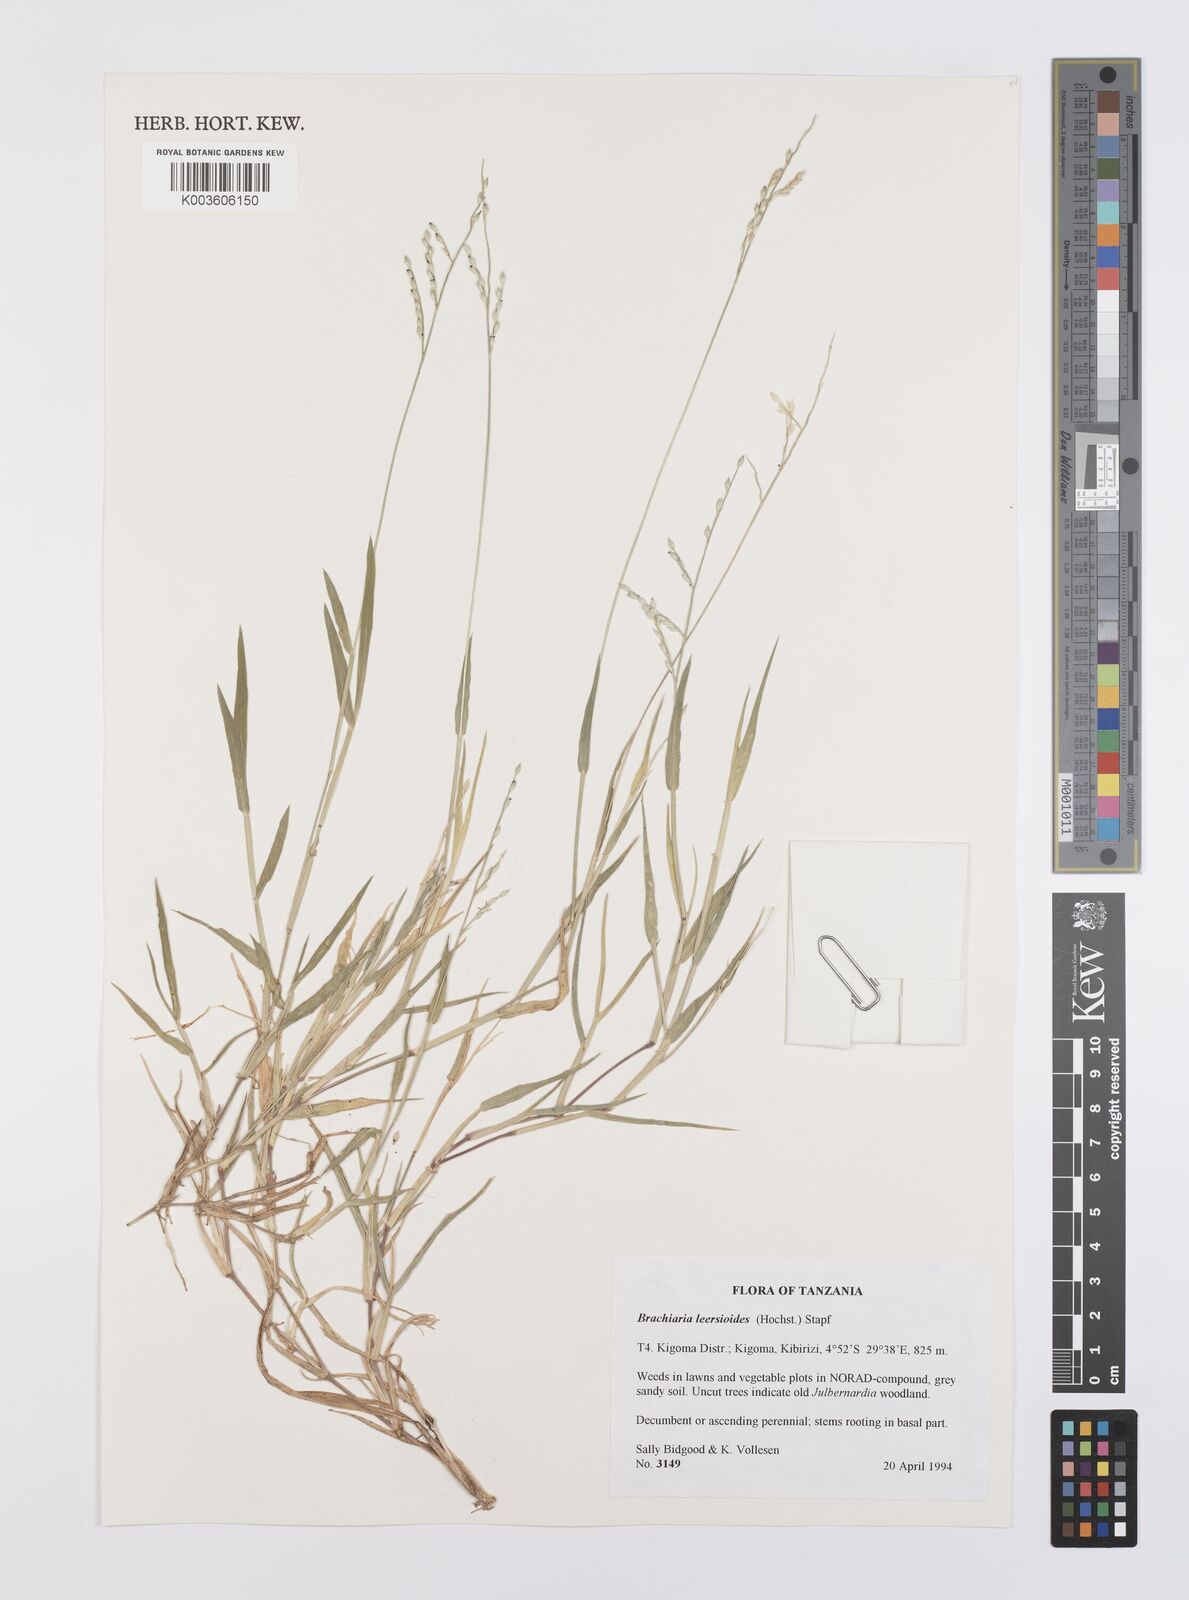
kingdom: Plantae
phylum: Tracheophyta
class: Liliopsida
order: Poales
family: Poaceae
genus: Urochloa
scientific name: Urochloa leersioides
